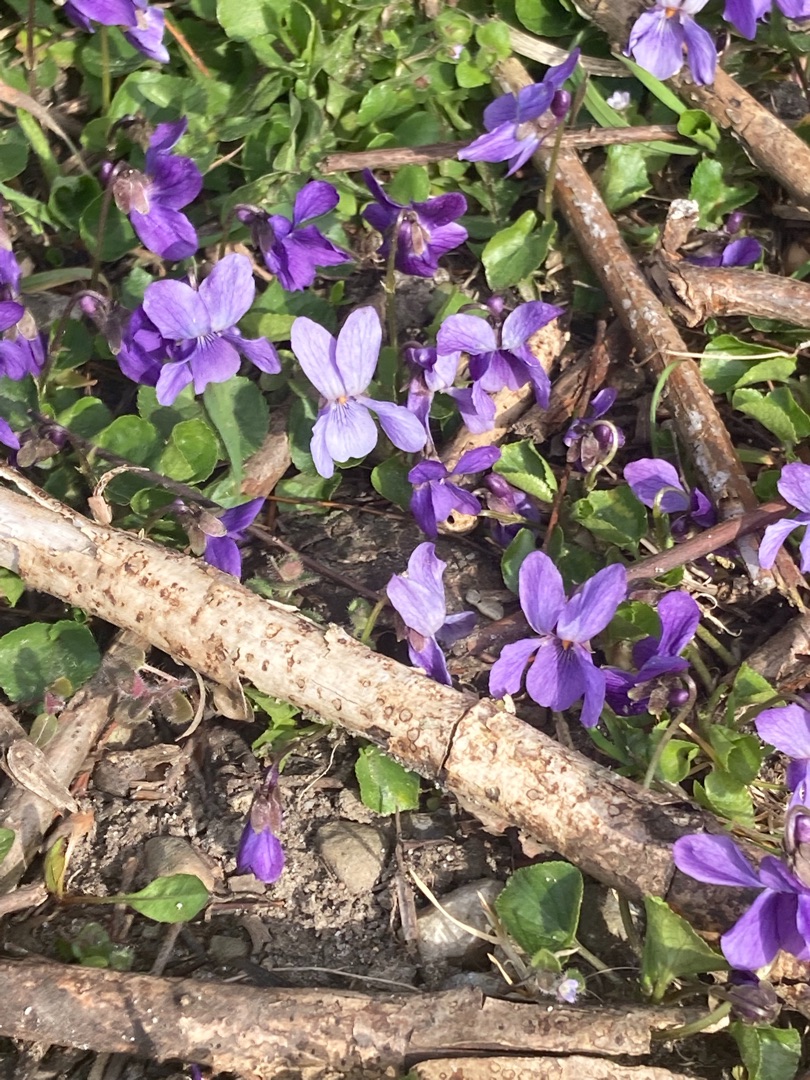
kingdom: Plantae
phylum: Tracheophyta
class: Magnoliopsida
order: Malpighiales
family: Violaceae
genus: Viola
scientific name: Viola odorata
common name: Marts-viol
